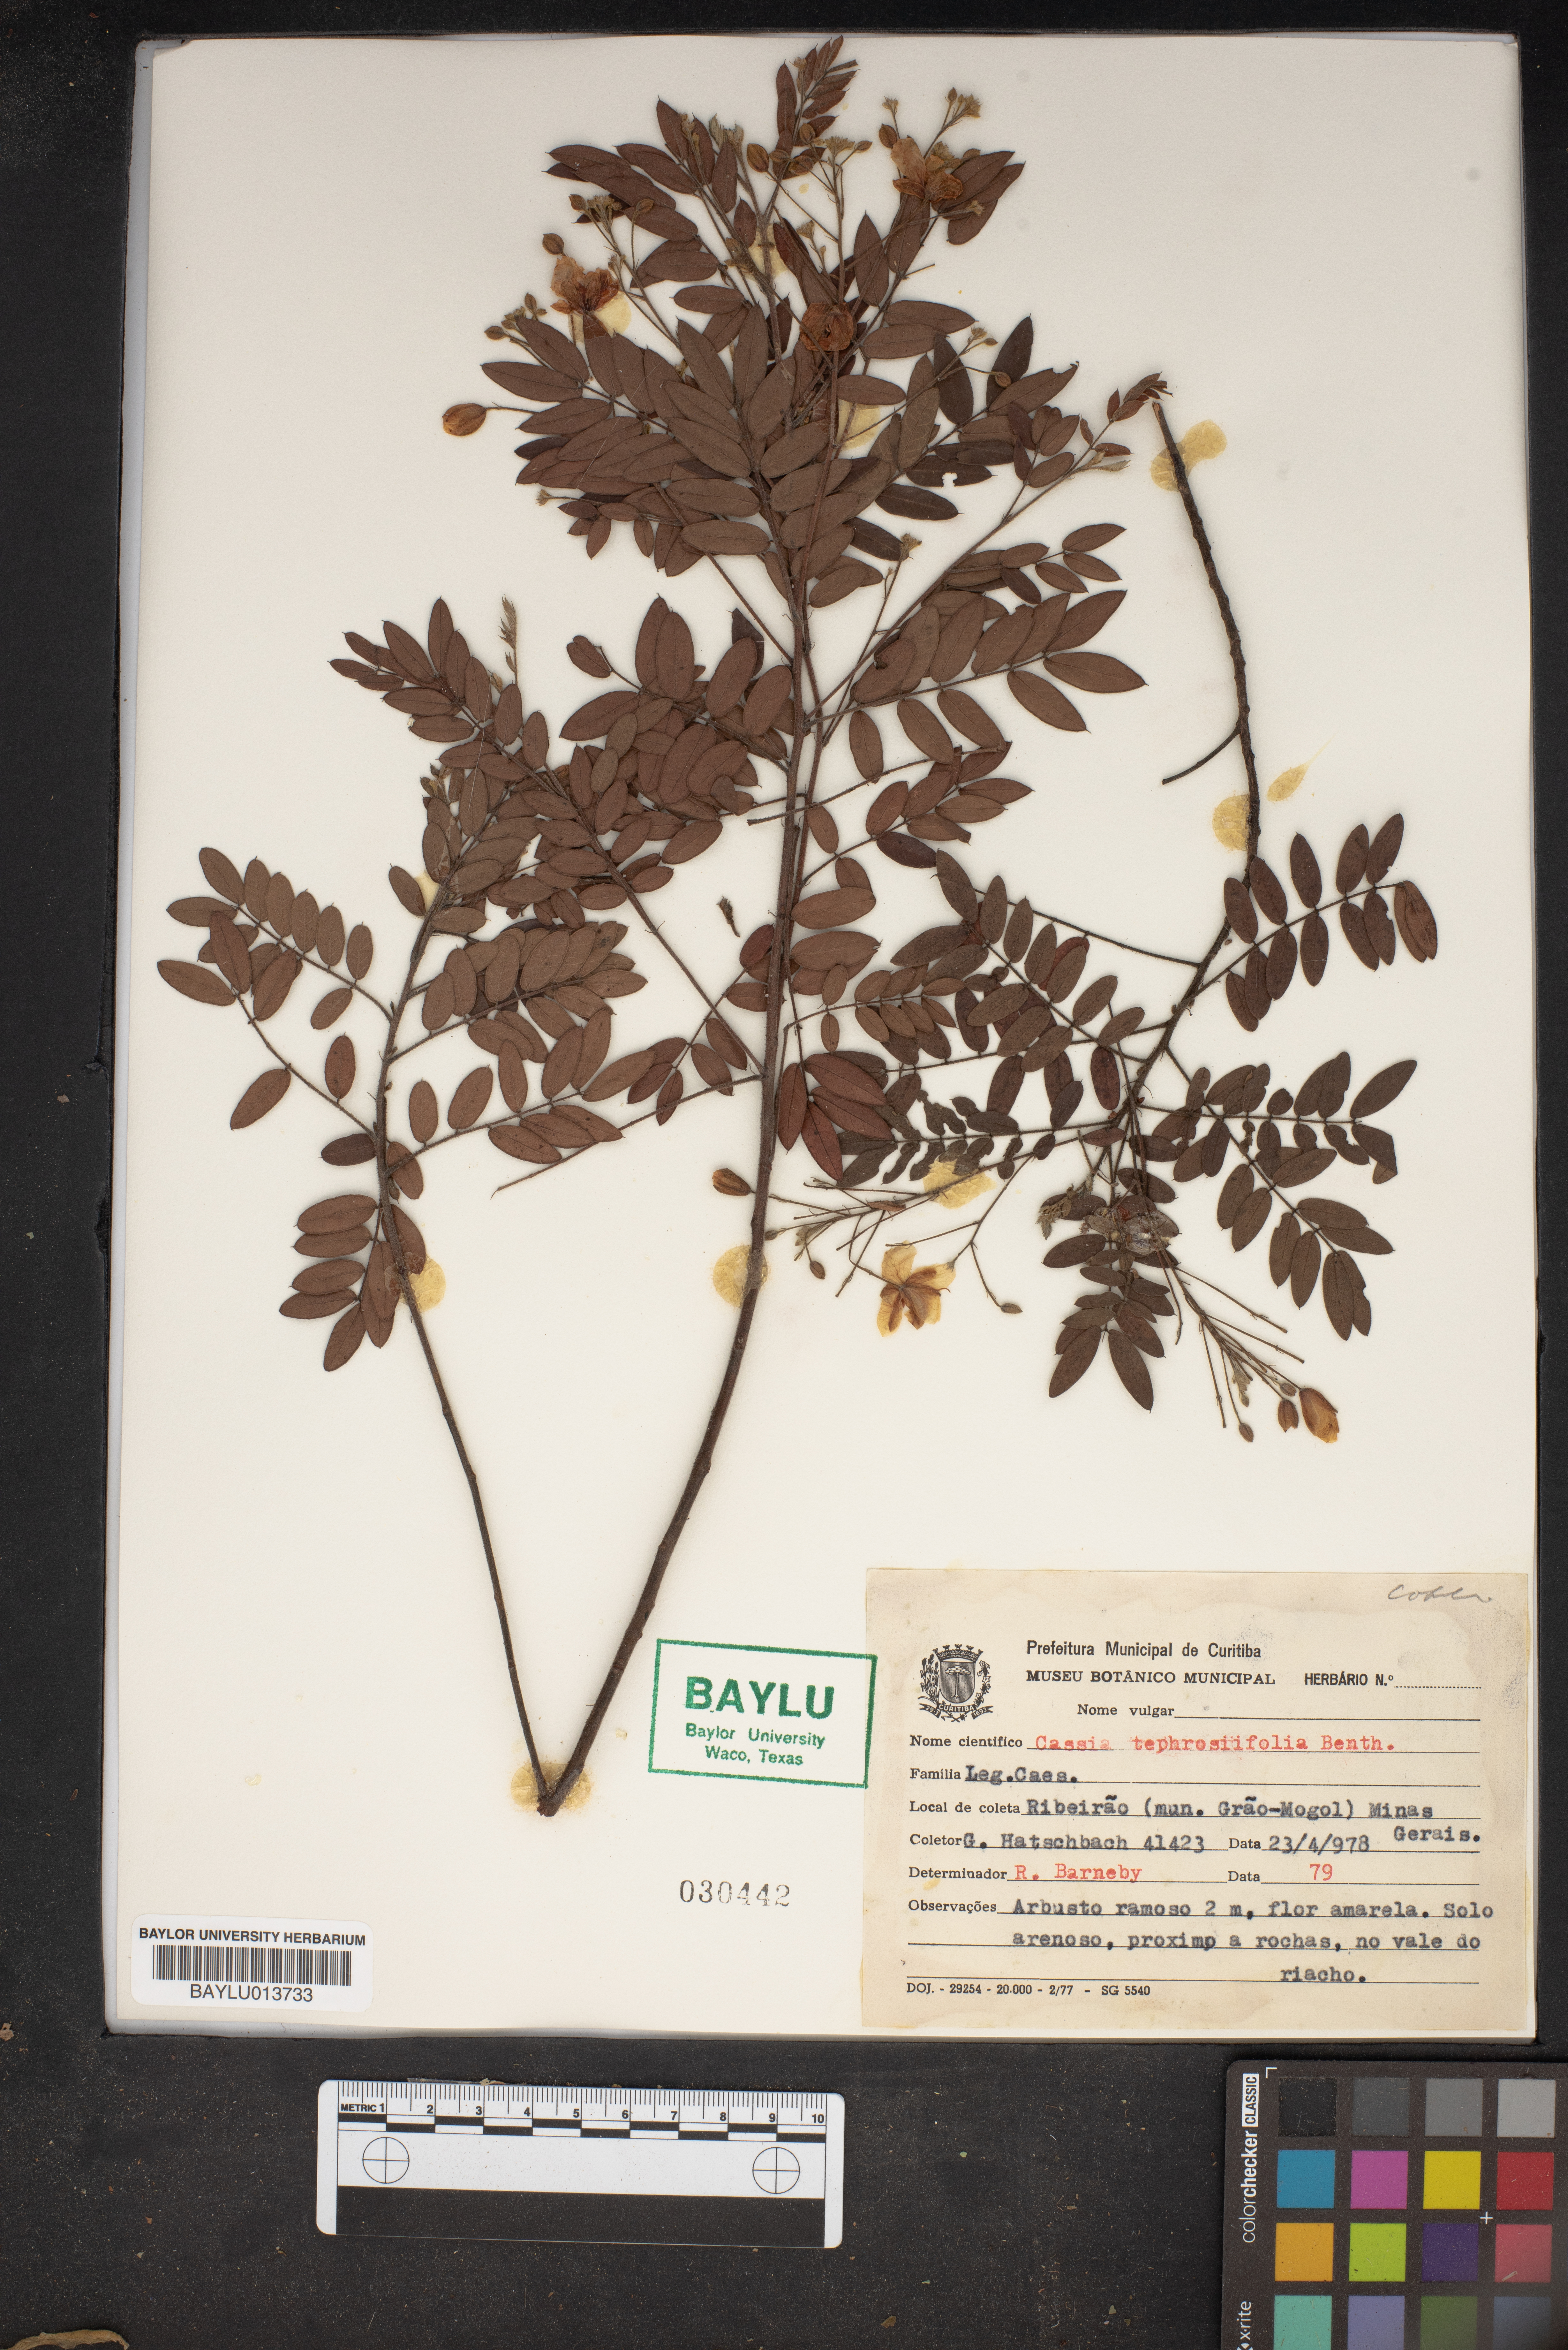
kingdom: Plantae
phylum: Tracheophyta
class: Magnoliopsida
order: Fabales
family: Fabaceae
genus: Chamaecrista
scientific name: Chamaecrista tephrosiifolia
